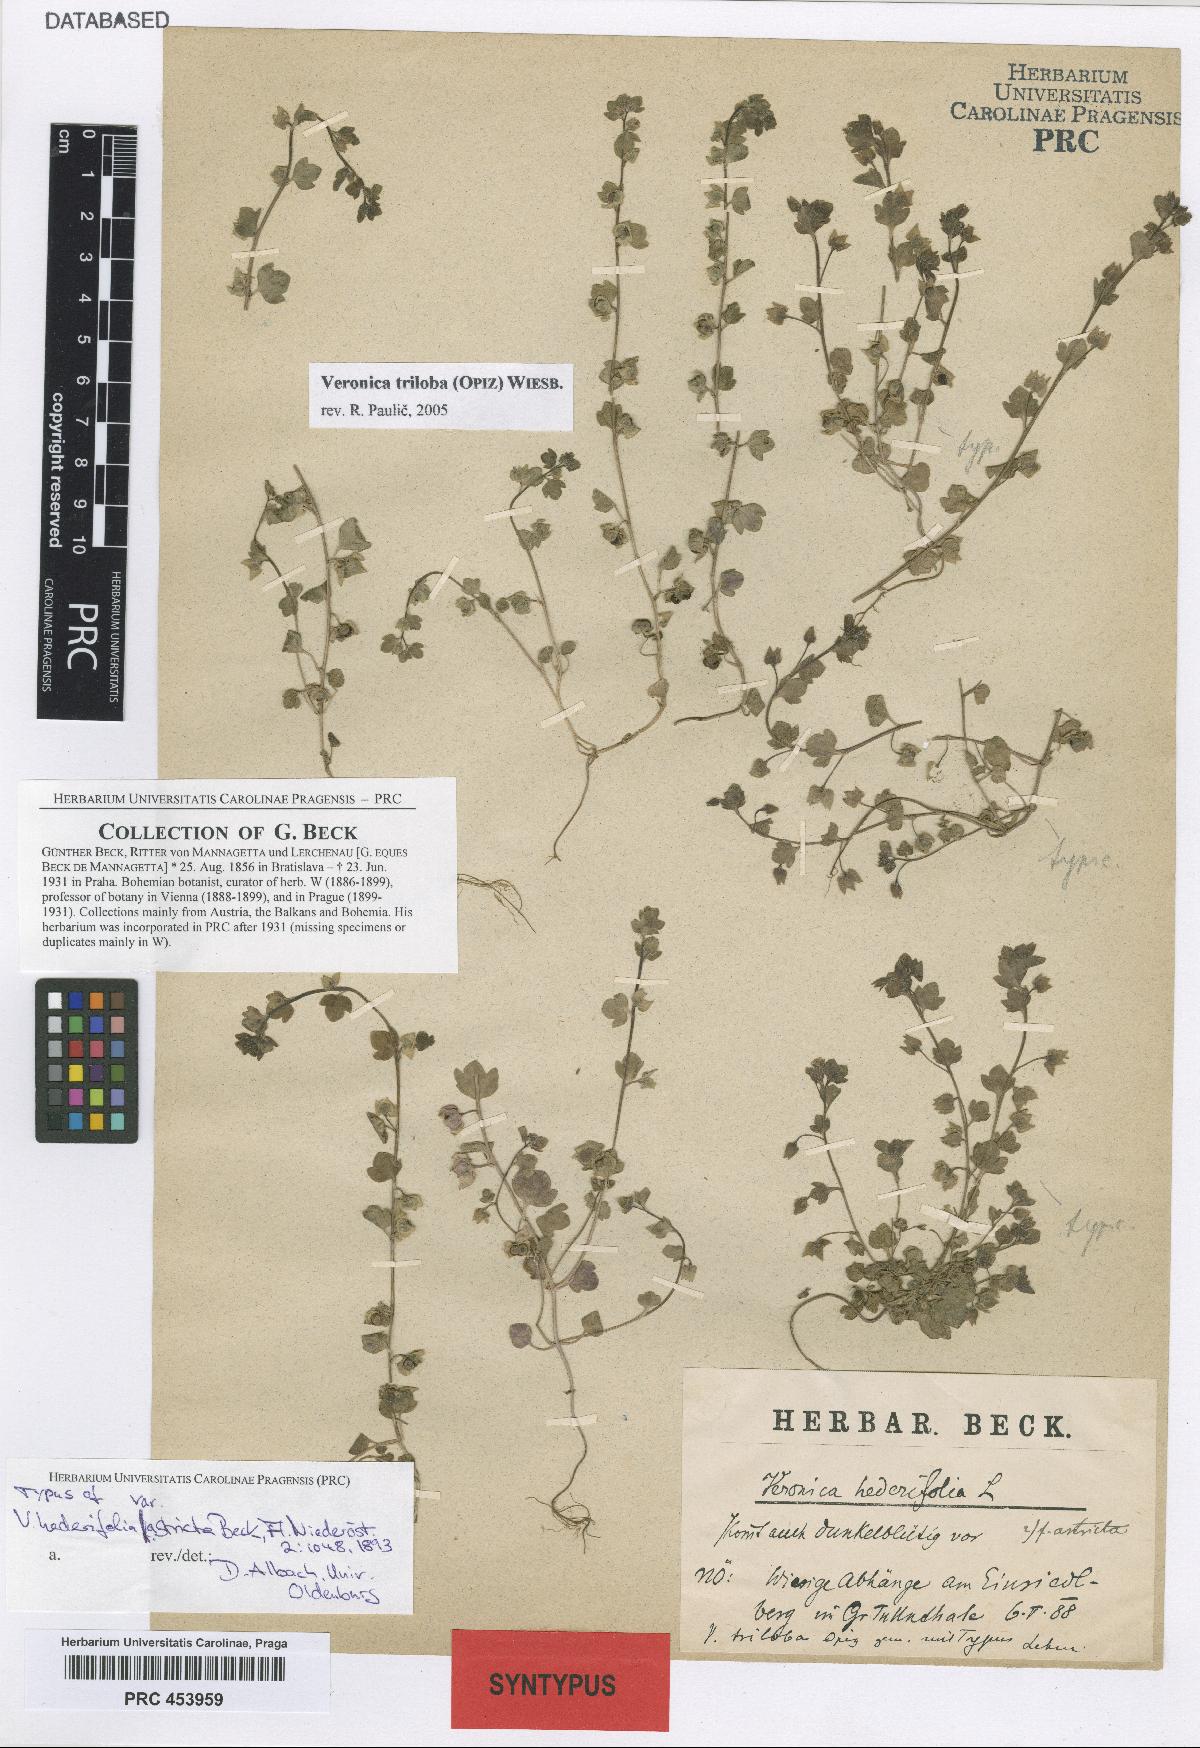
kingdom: Plantae
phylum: Tracheophyta
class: Magnoliopsida
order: Lamiales
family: Plantaginaceae
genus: Veronica
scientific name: Veronica triloba
